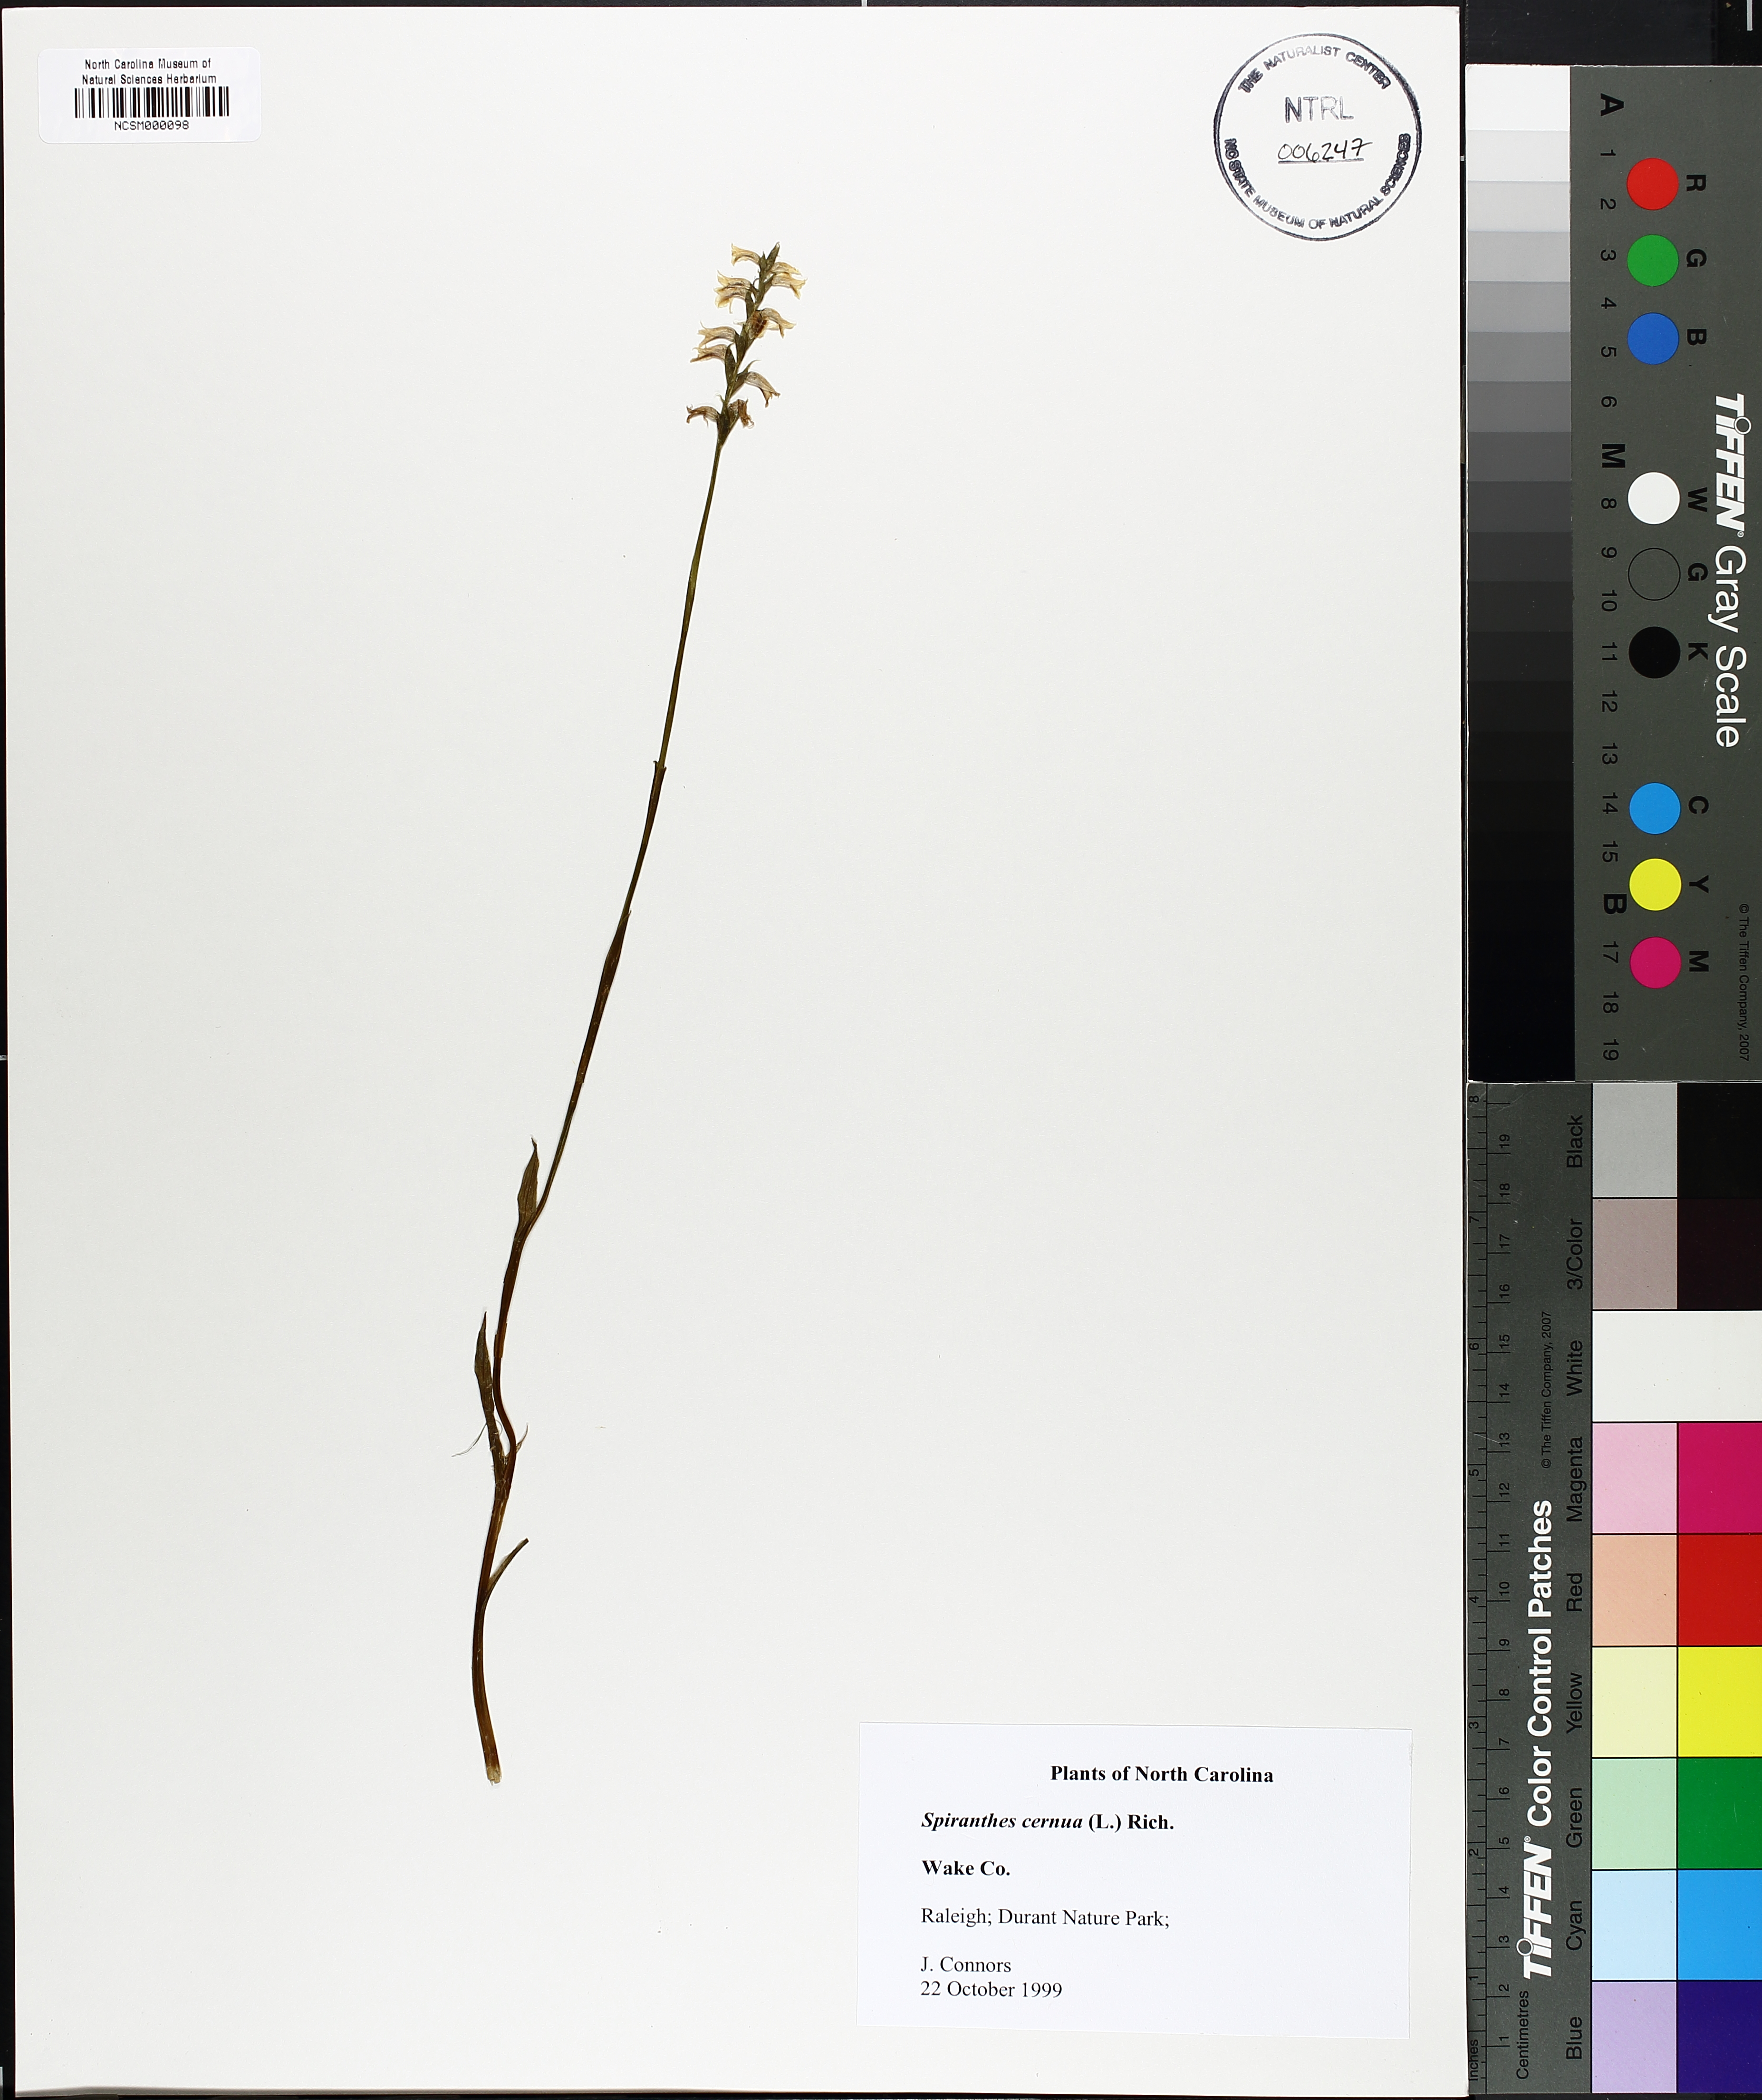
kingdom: Plantae
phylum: Tracheophyta
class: Liliopsida
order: Asparagales
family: Orchidaceae
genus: Spiranthes
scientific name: Spiranthes cernua
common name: Dropping ladies'-tresses
